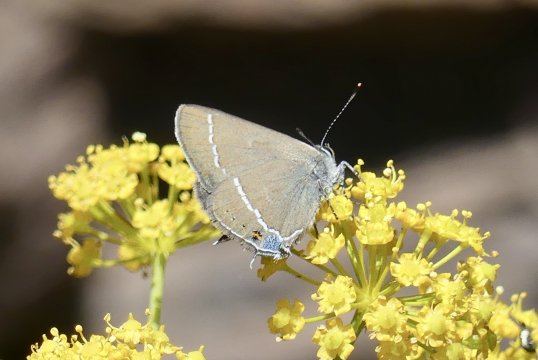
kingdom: Animalia
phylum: Arthropoda
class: Insecta
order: Lepidoptera
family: Lycaenidae
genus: Tuttiola
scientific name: Tuttiola spini
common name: Blue-spot Hairstreak
